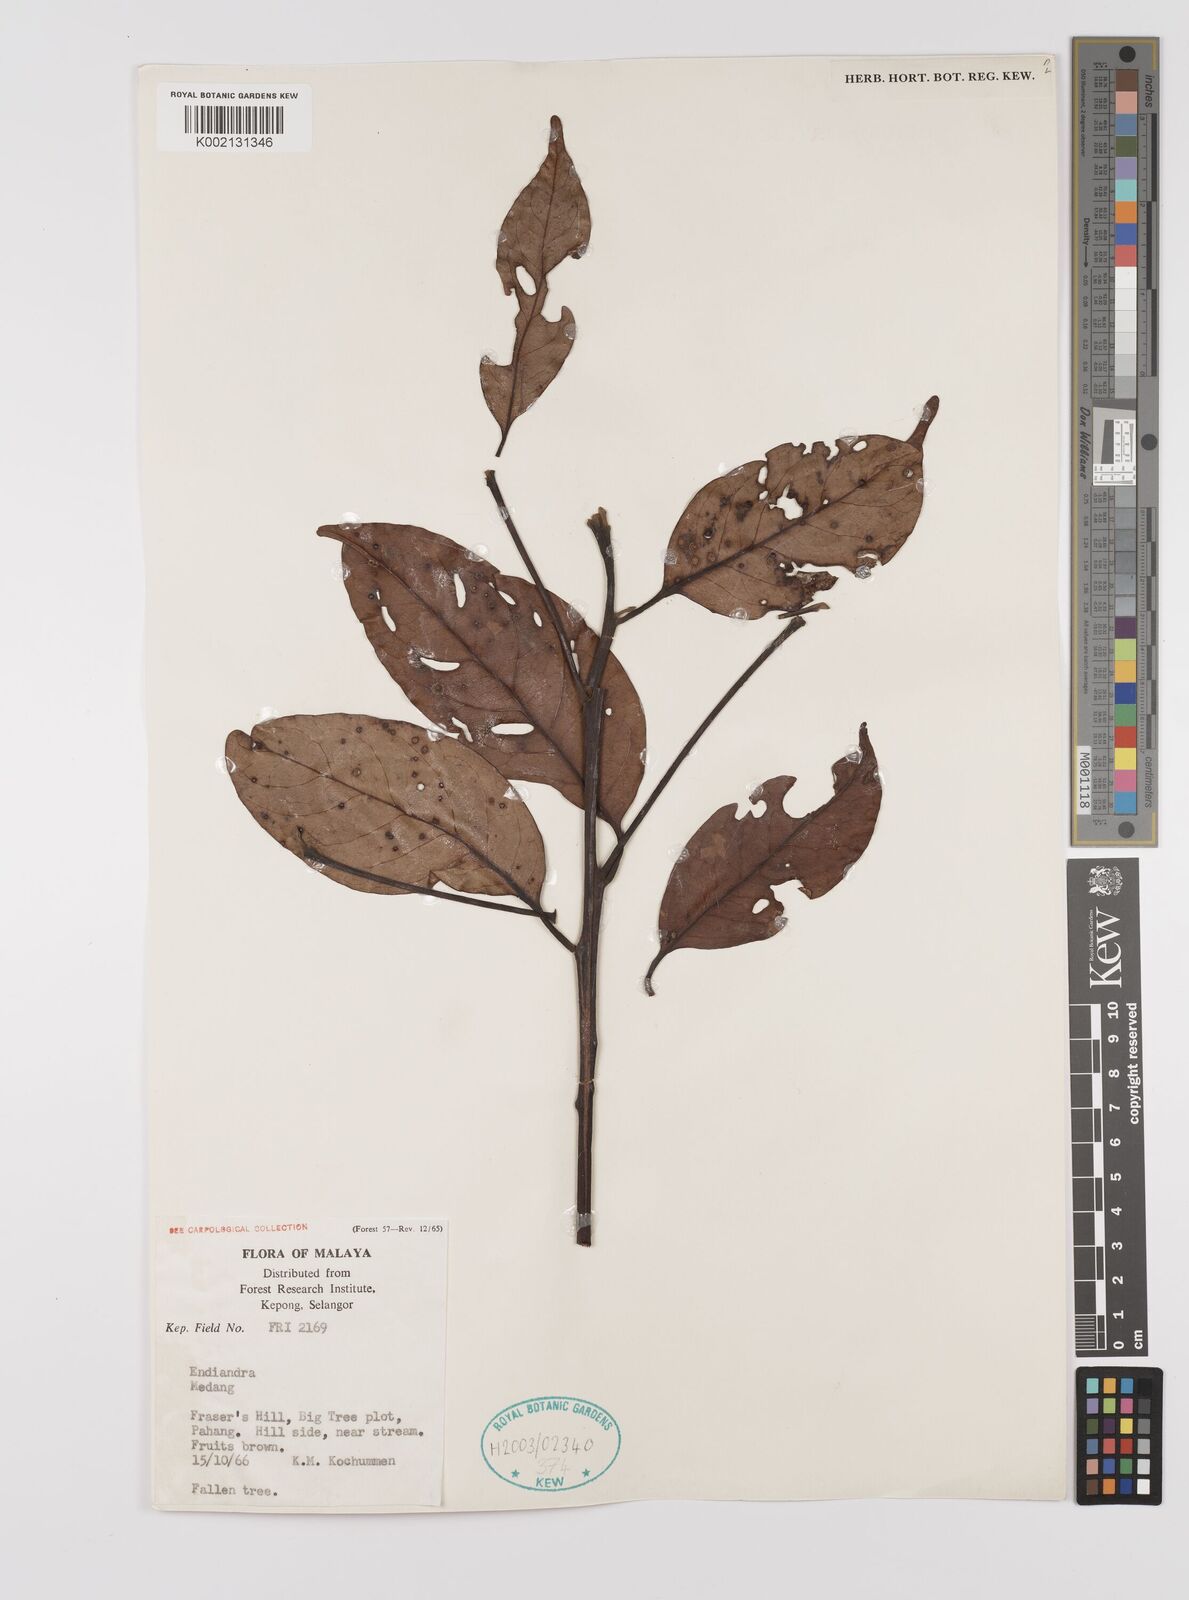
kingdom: Plantae
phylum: Tracheophyta
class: Magnoliopsida
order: Laurales
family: Lauraceae
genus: Endiandra
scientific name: Endiandra
